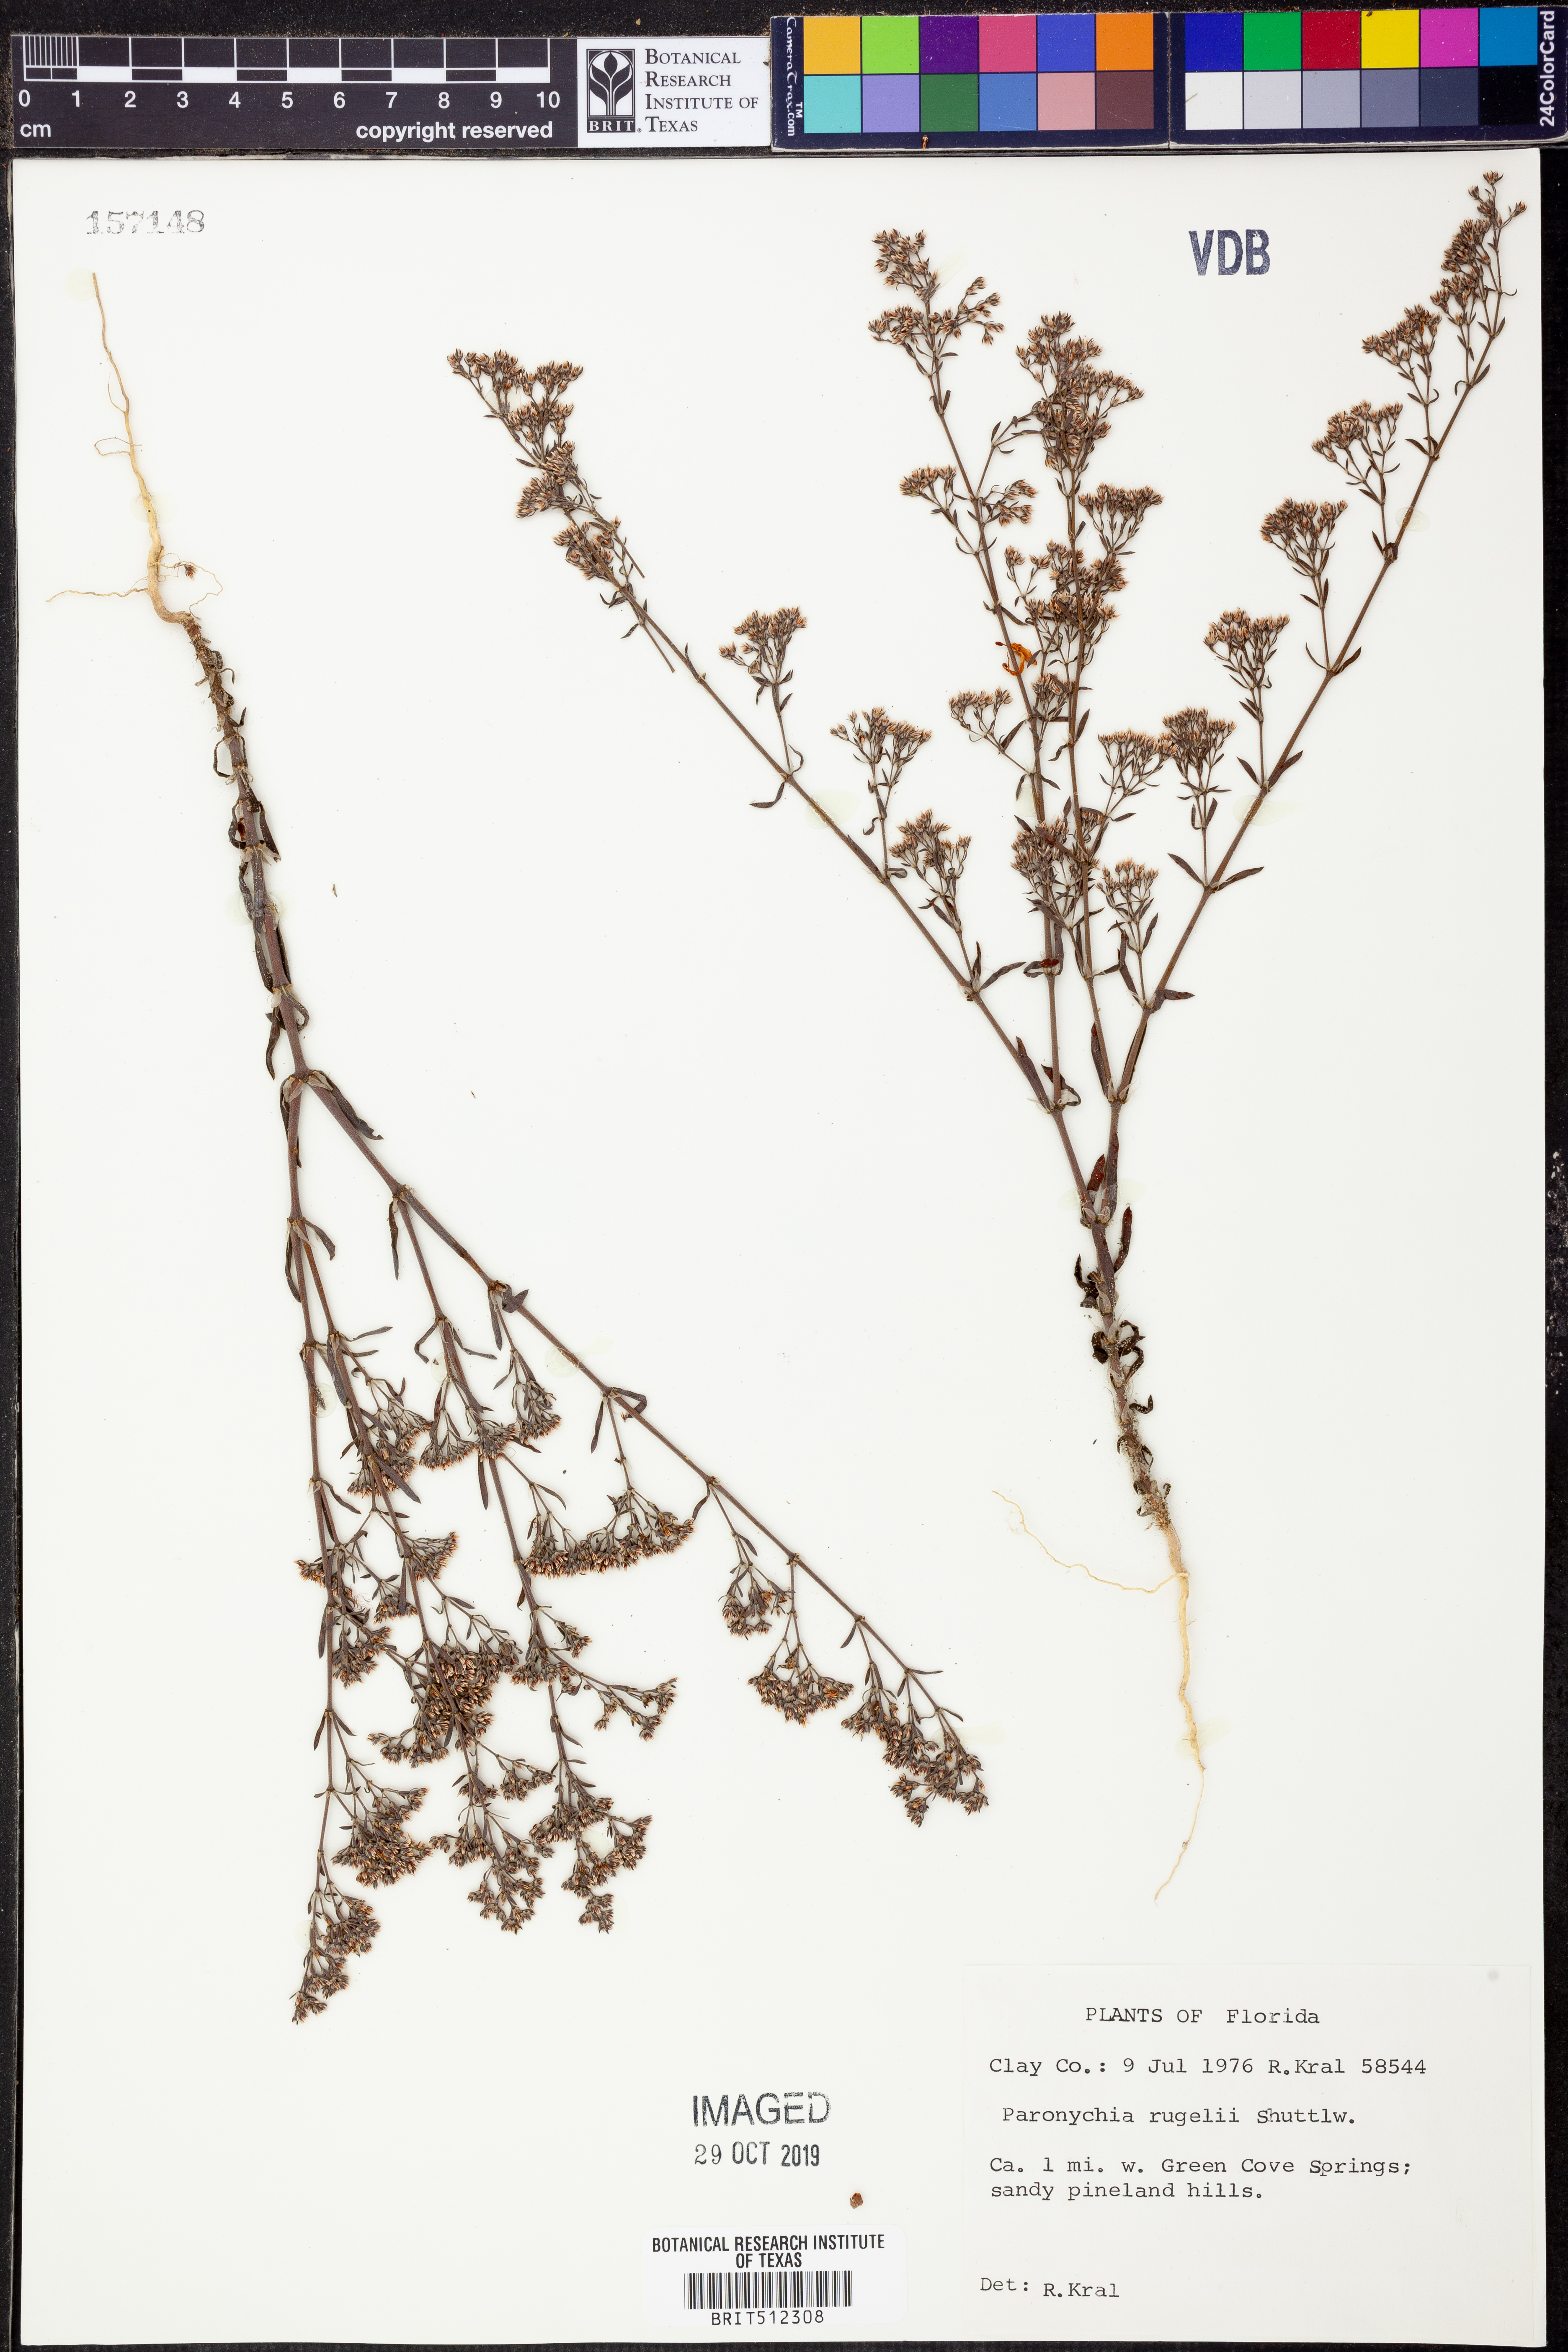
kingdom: Plantae
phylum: Tracheophyta
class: Magnoliopsida
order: Caryophyllales
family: Caryophyllaceae
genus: Paronychia
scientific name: Paronychia rugelii
